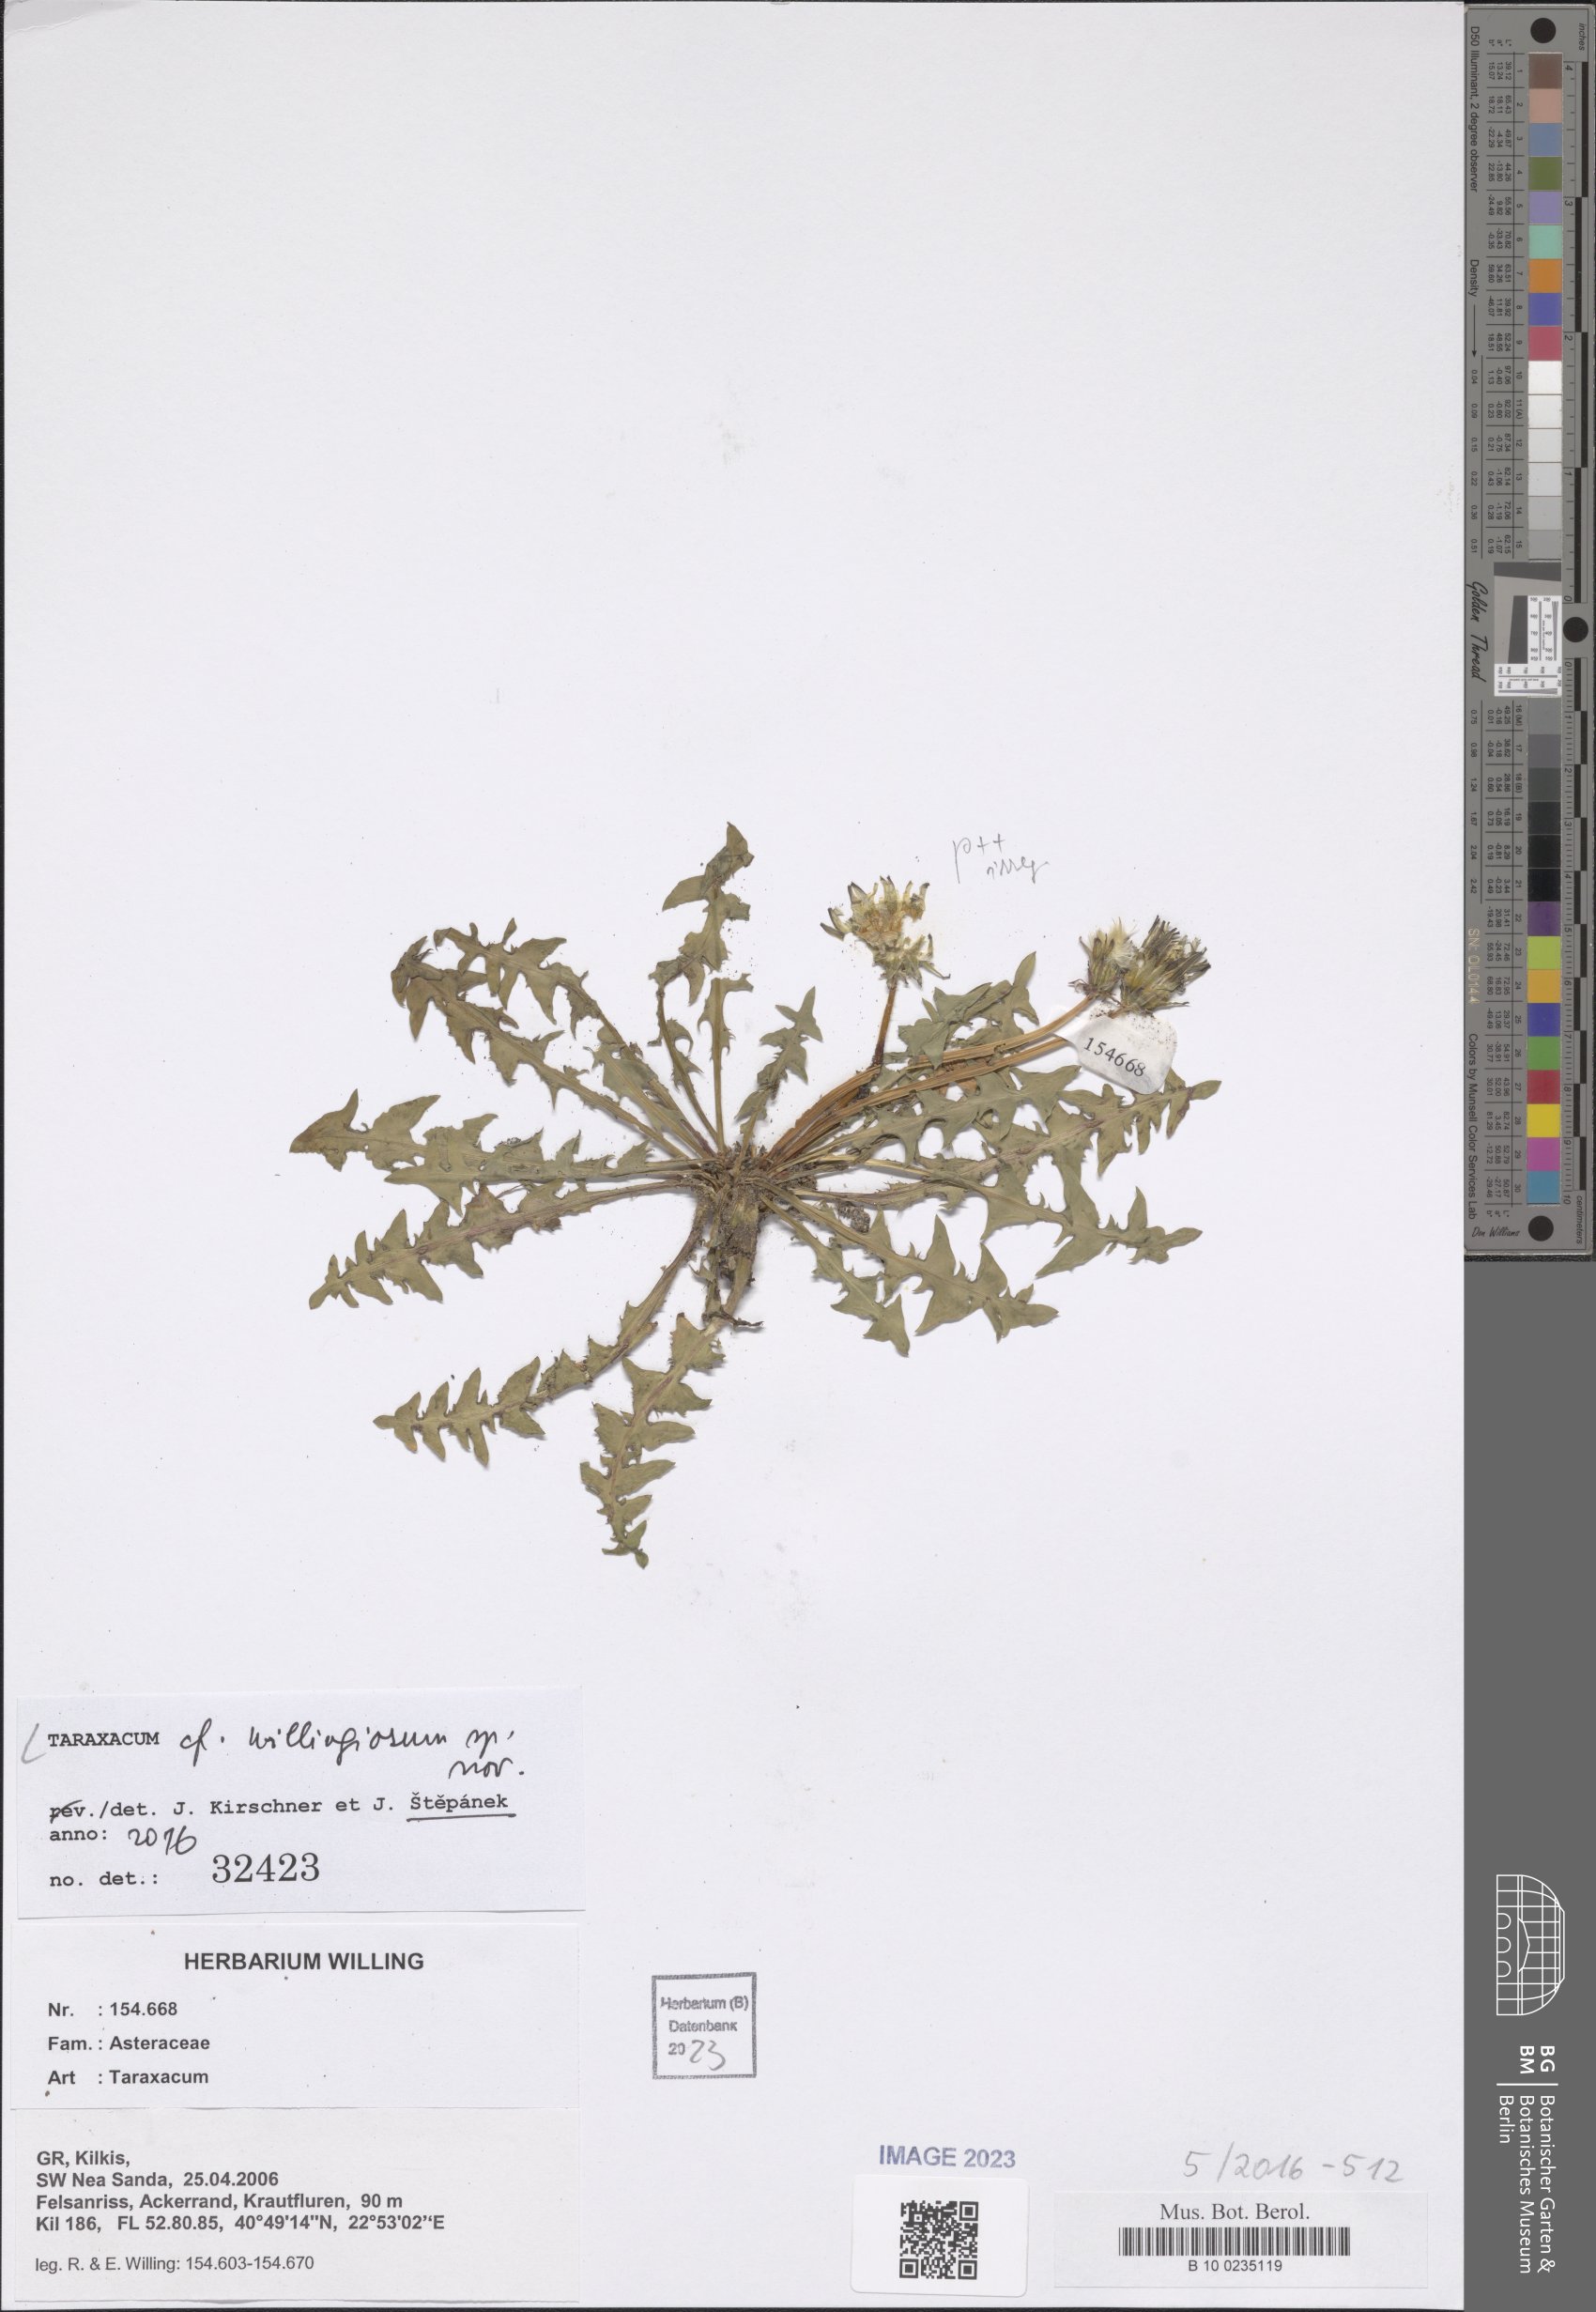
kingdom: Plantae
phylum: Tracheophyta
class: Magnoliopsida
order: Asterales
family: Asteraceae
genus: Taraxacum
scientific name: Taraxacum
